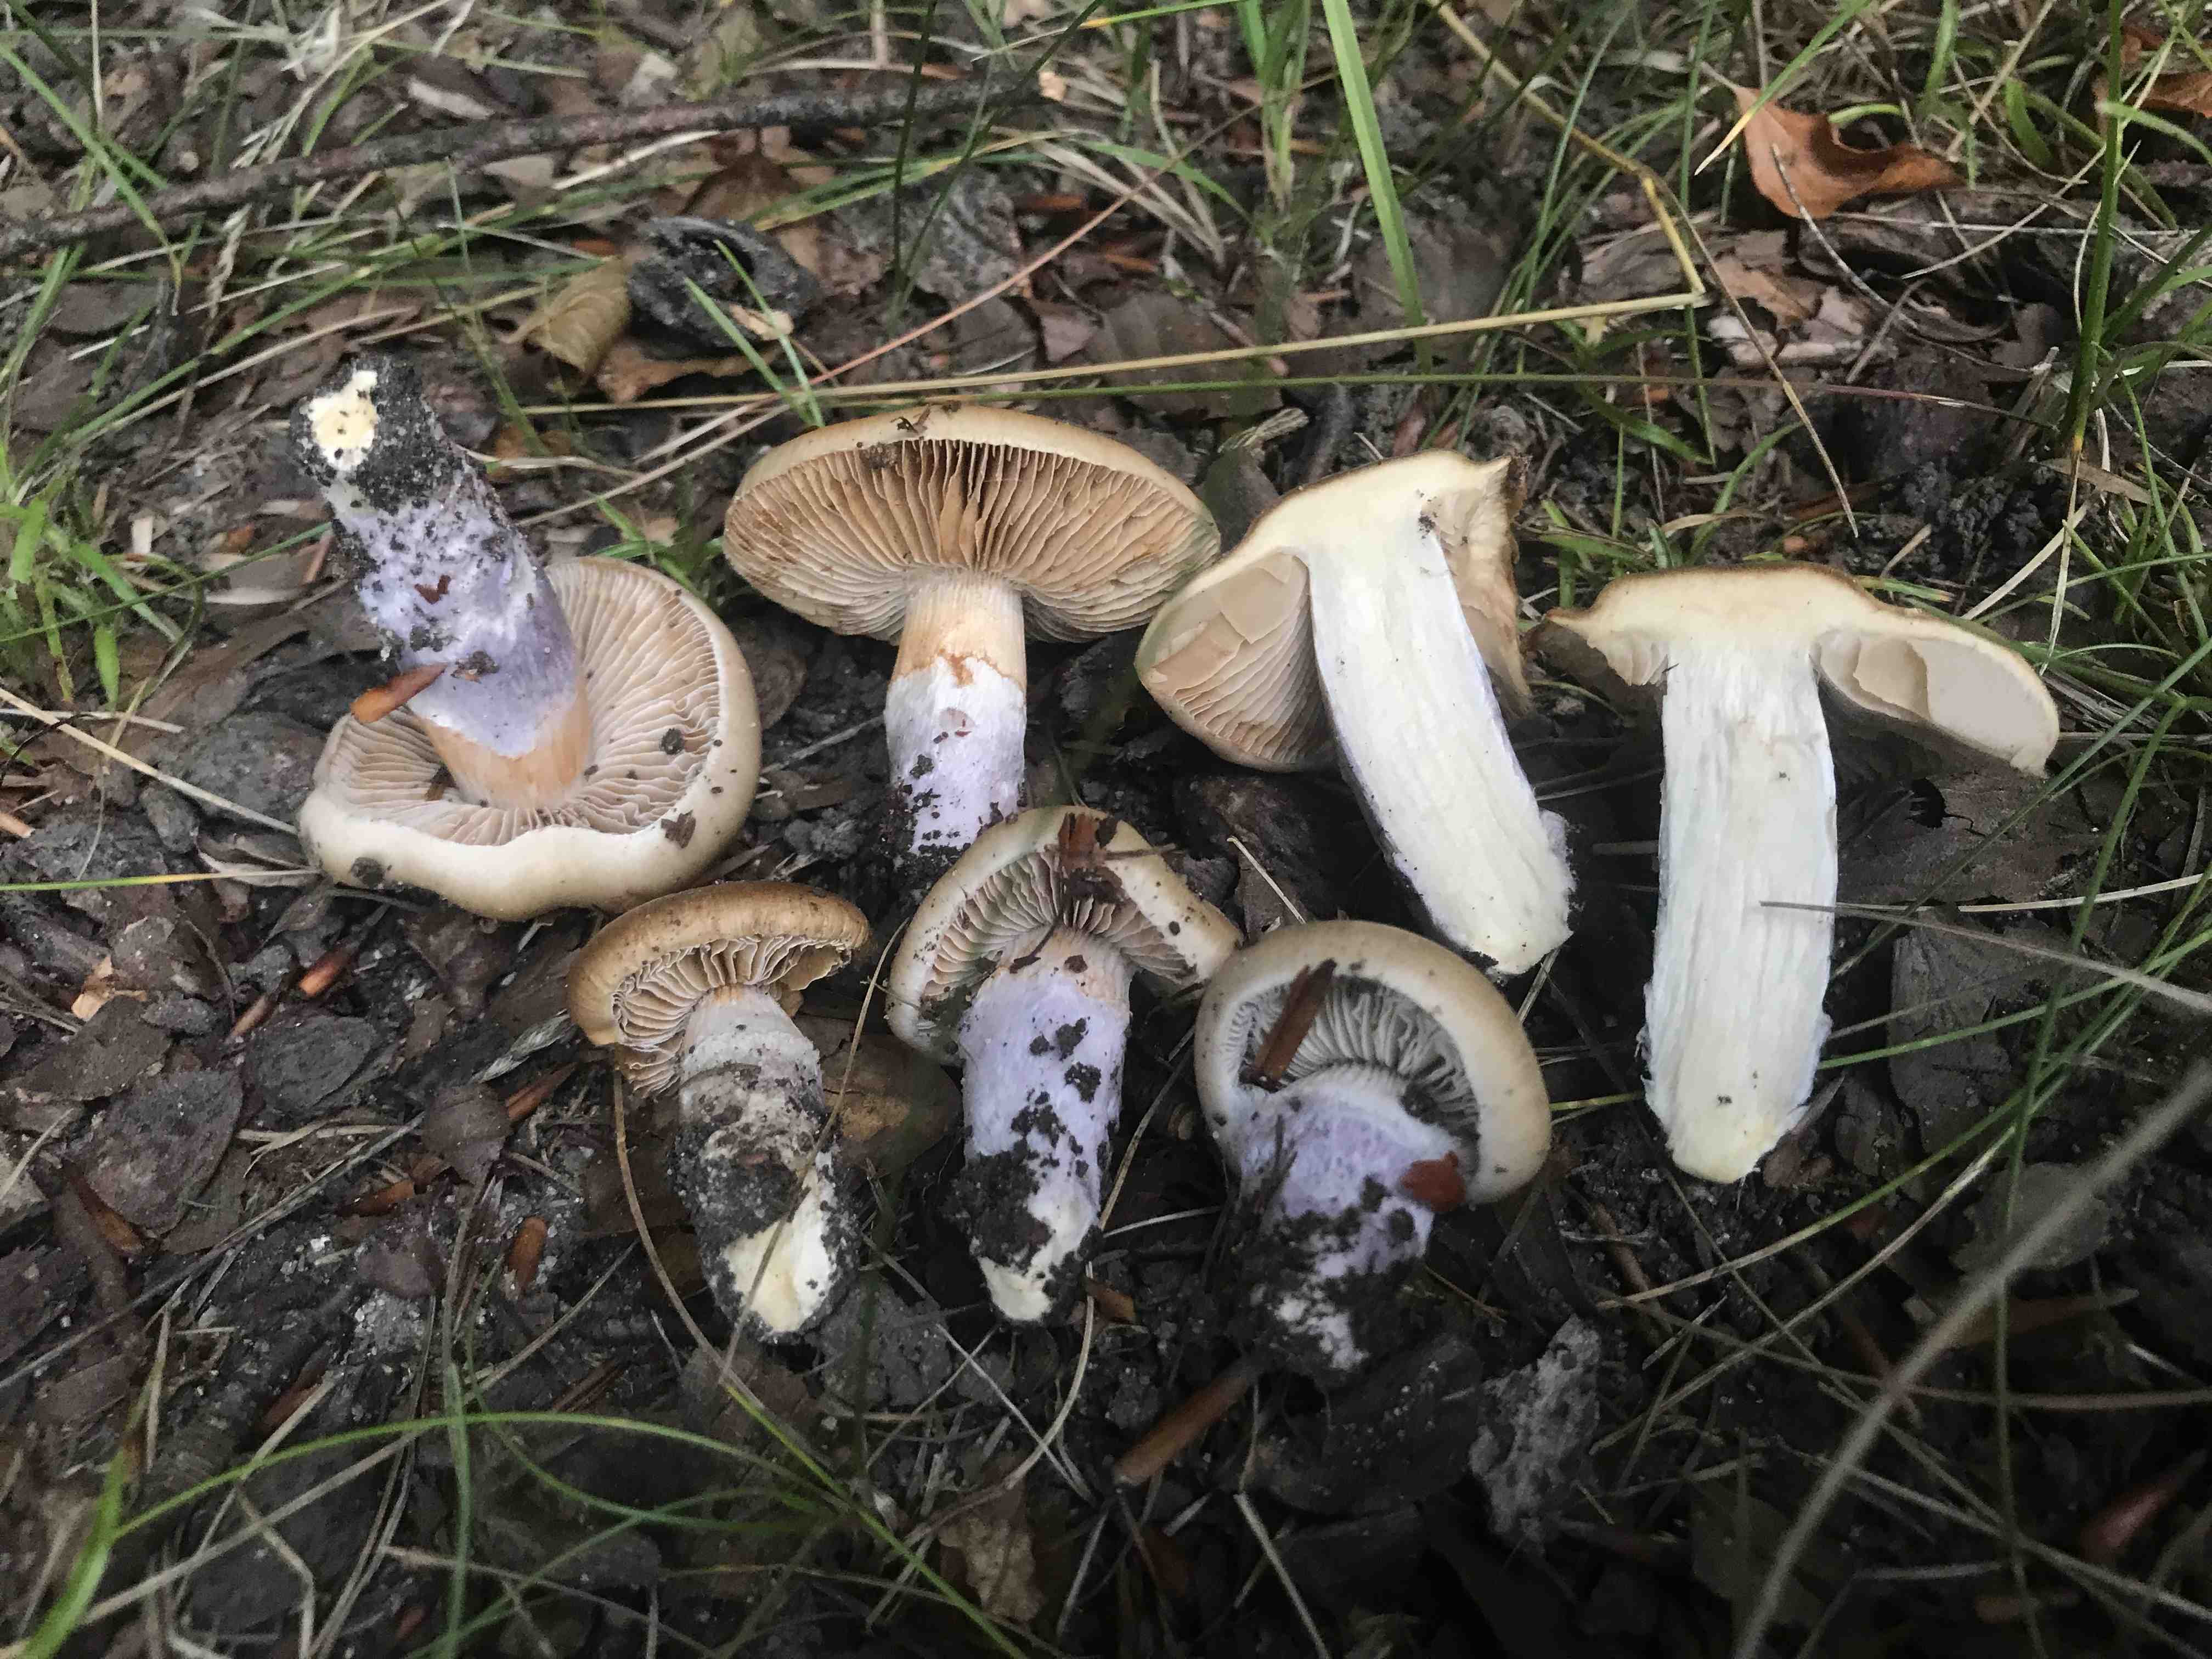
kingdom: Fungi
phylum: Basidiomycota
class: Agaricomycetes
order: Agaricales
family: Cortinariaceae
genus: Cortinarius
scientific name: Cortinarius elatior
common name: høj slørhat
